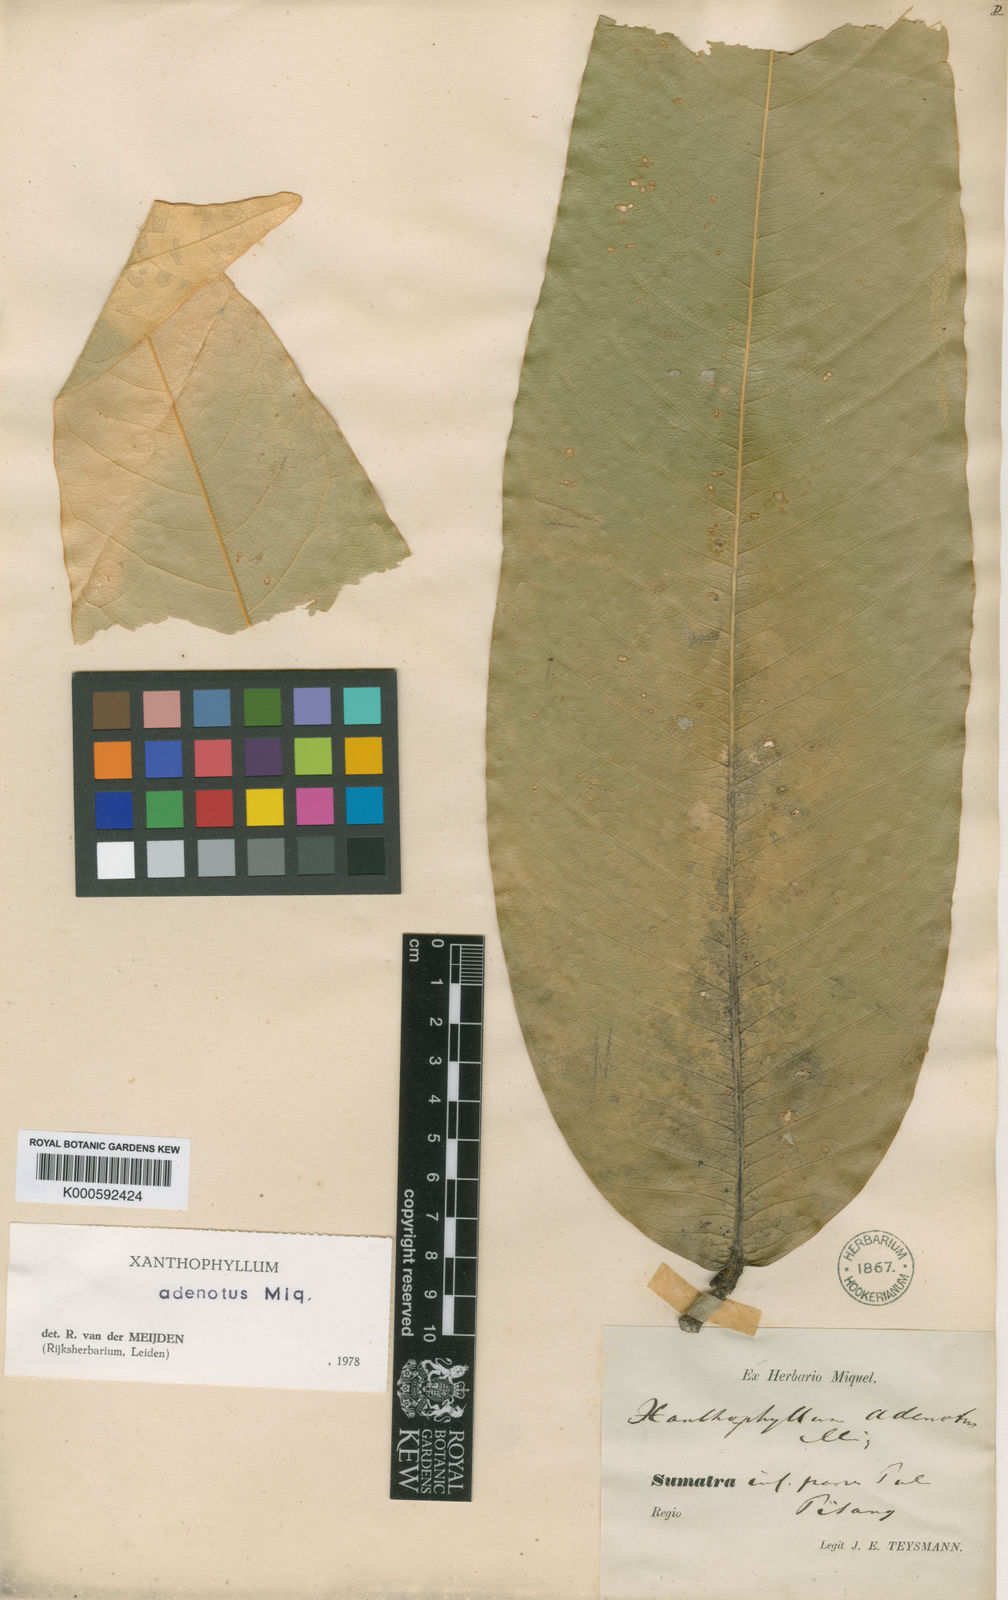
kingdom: Plantae
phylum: Tracheophyta
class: Magnoliopsida
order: Fabales
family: Polygalaceae
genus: Xanthophyllum
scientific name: Xanthophyllum adenotus
